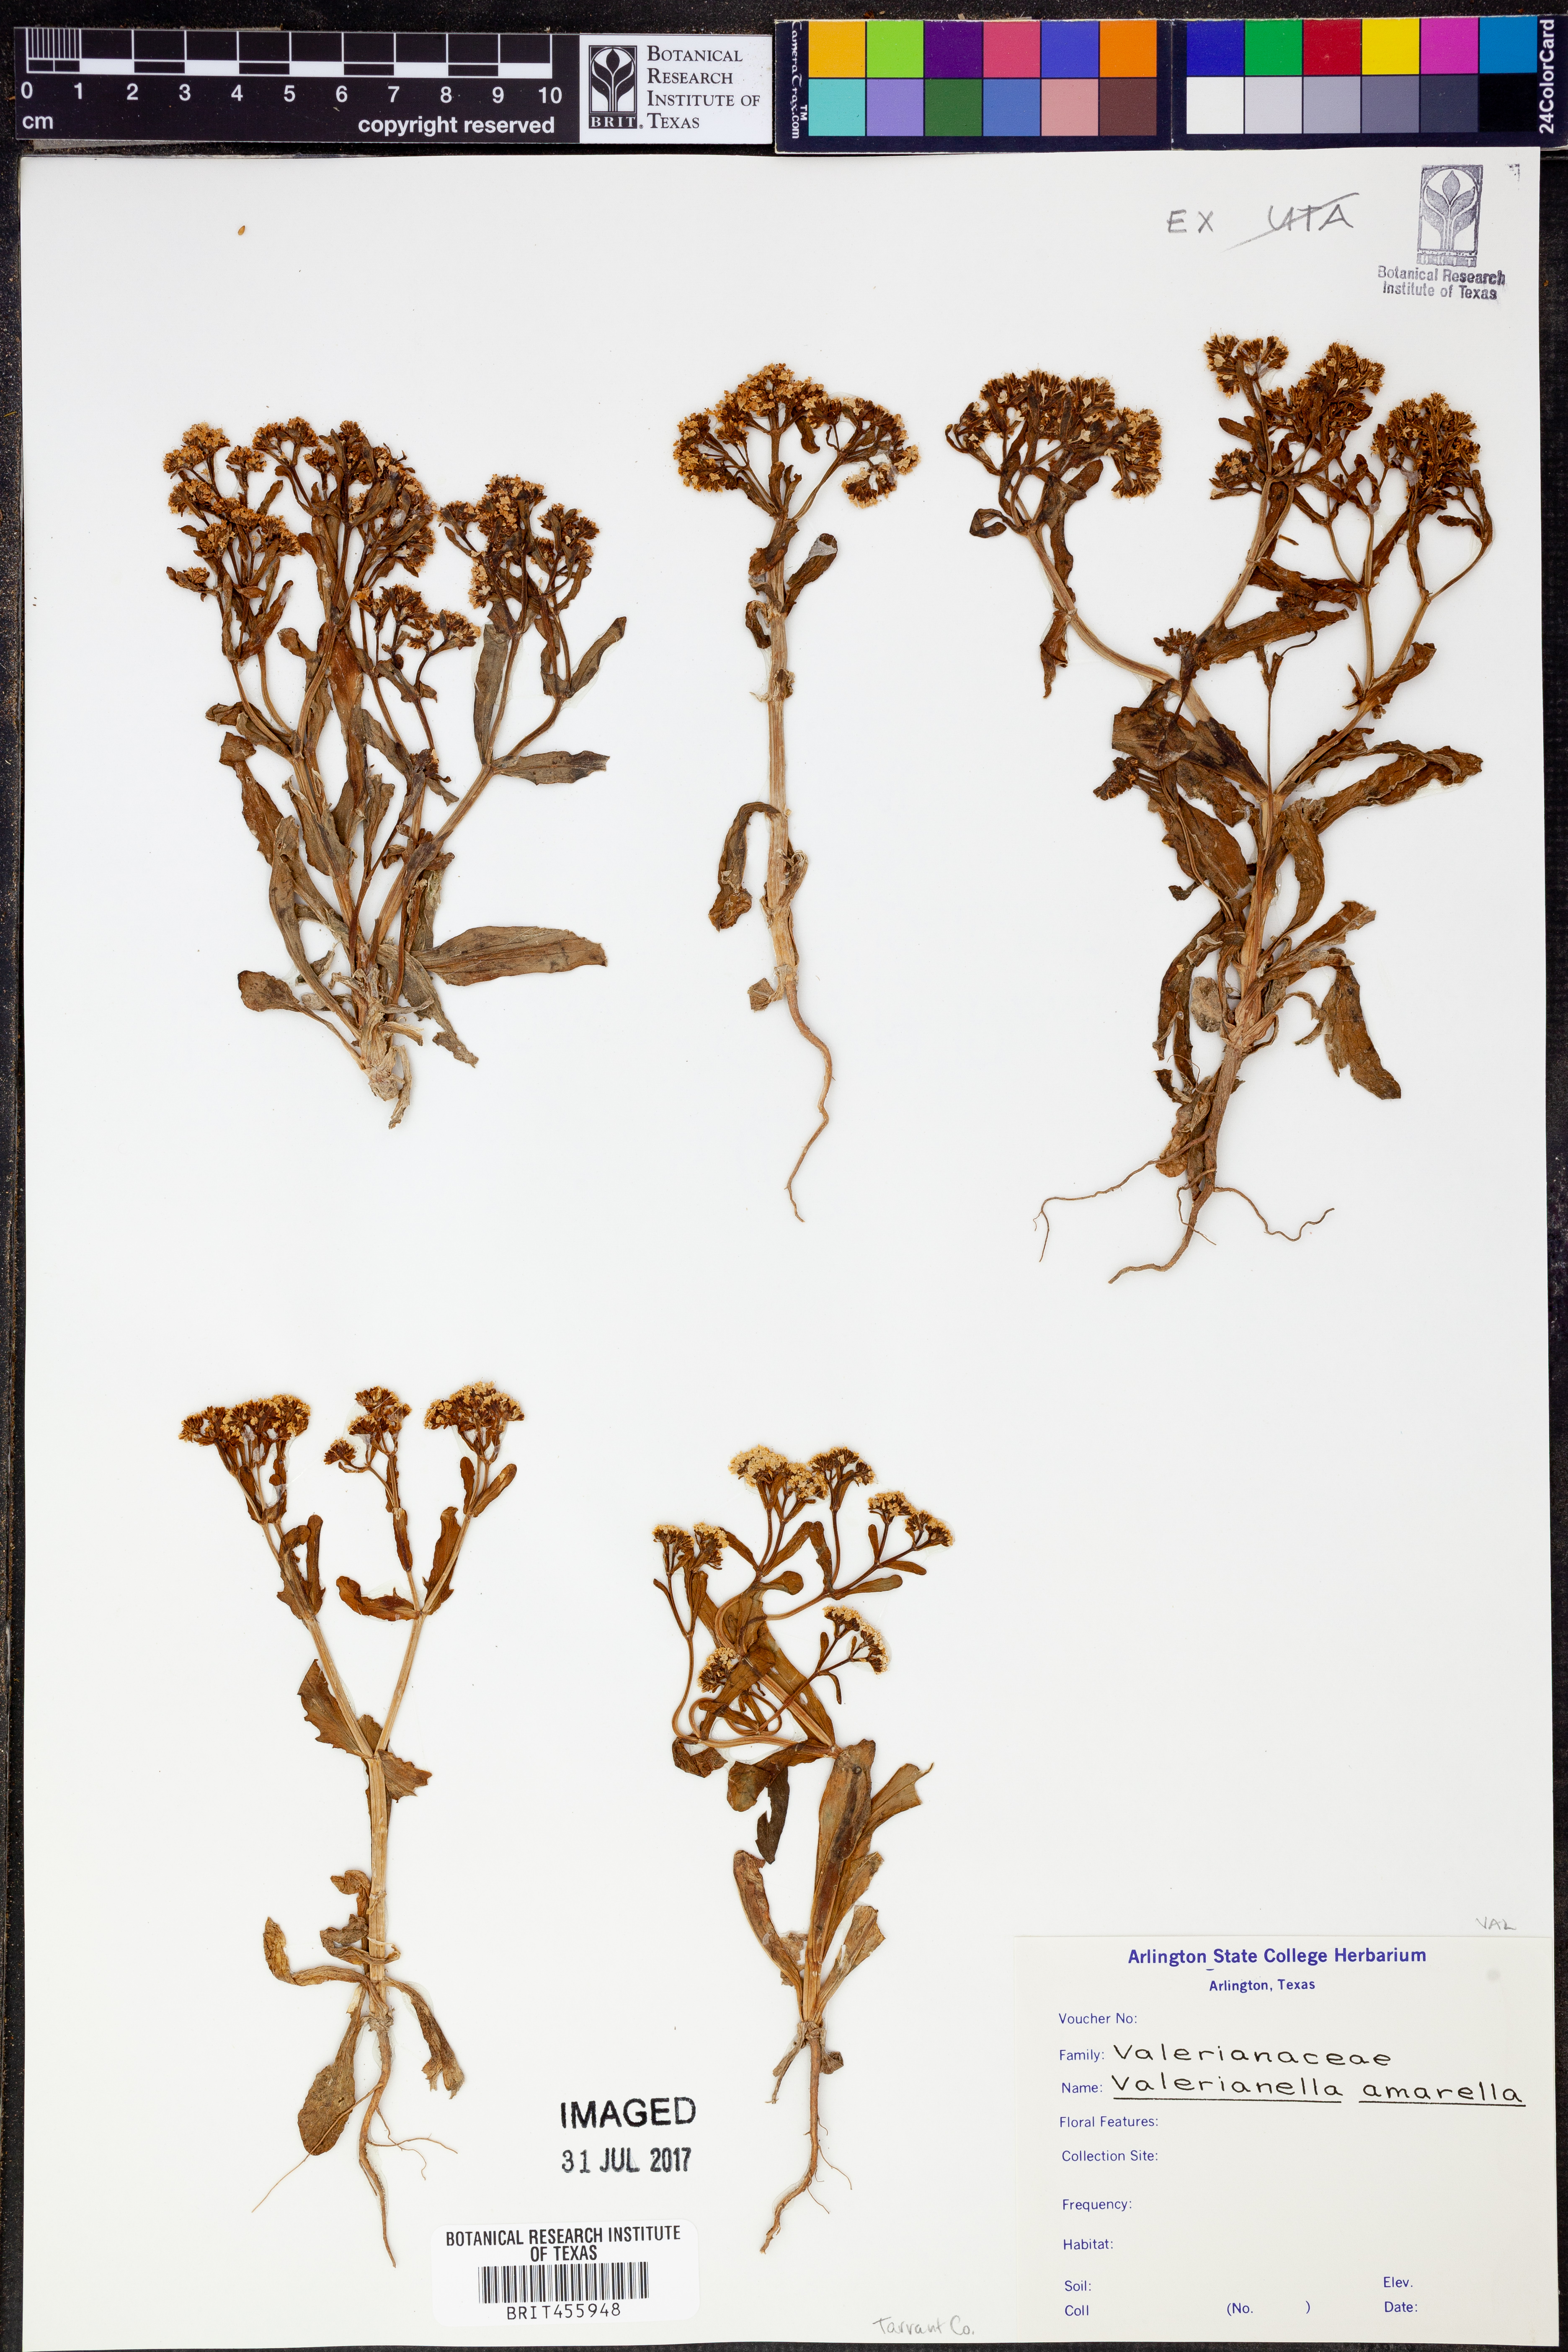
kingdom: Plantae
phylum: Tracheophyta
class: Magnoliopsida
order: Dipsacales
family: Caprifoliaceae
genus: Valerianella
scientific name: Valerianella amarella
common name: Hariy cornsalad
